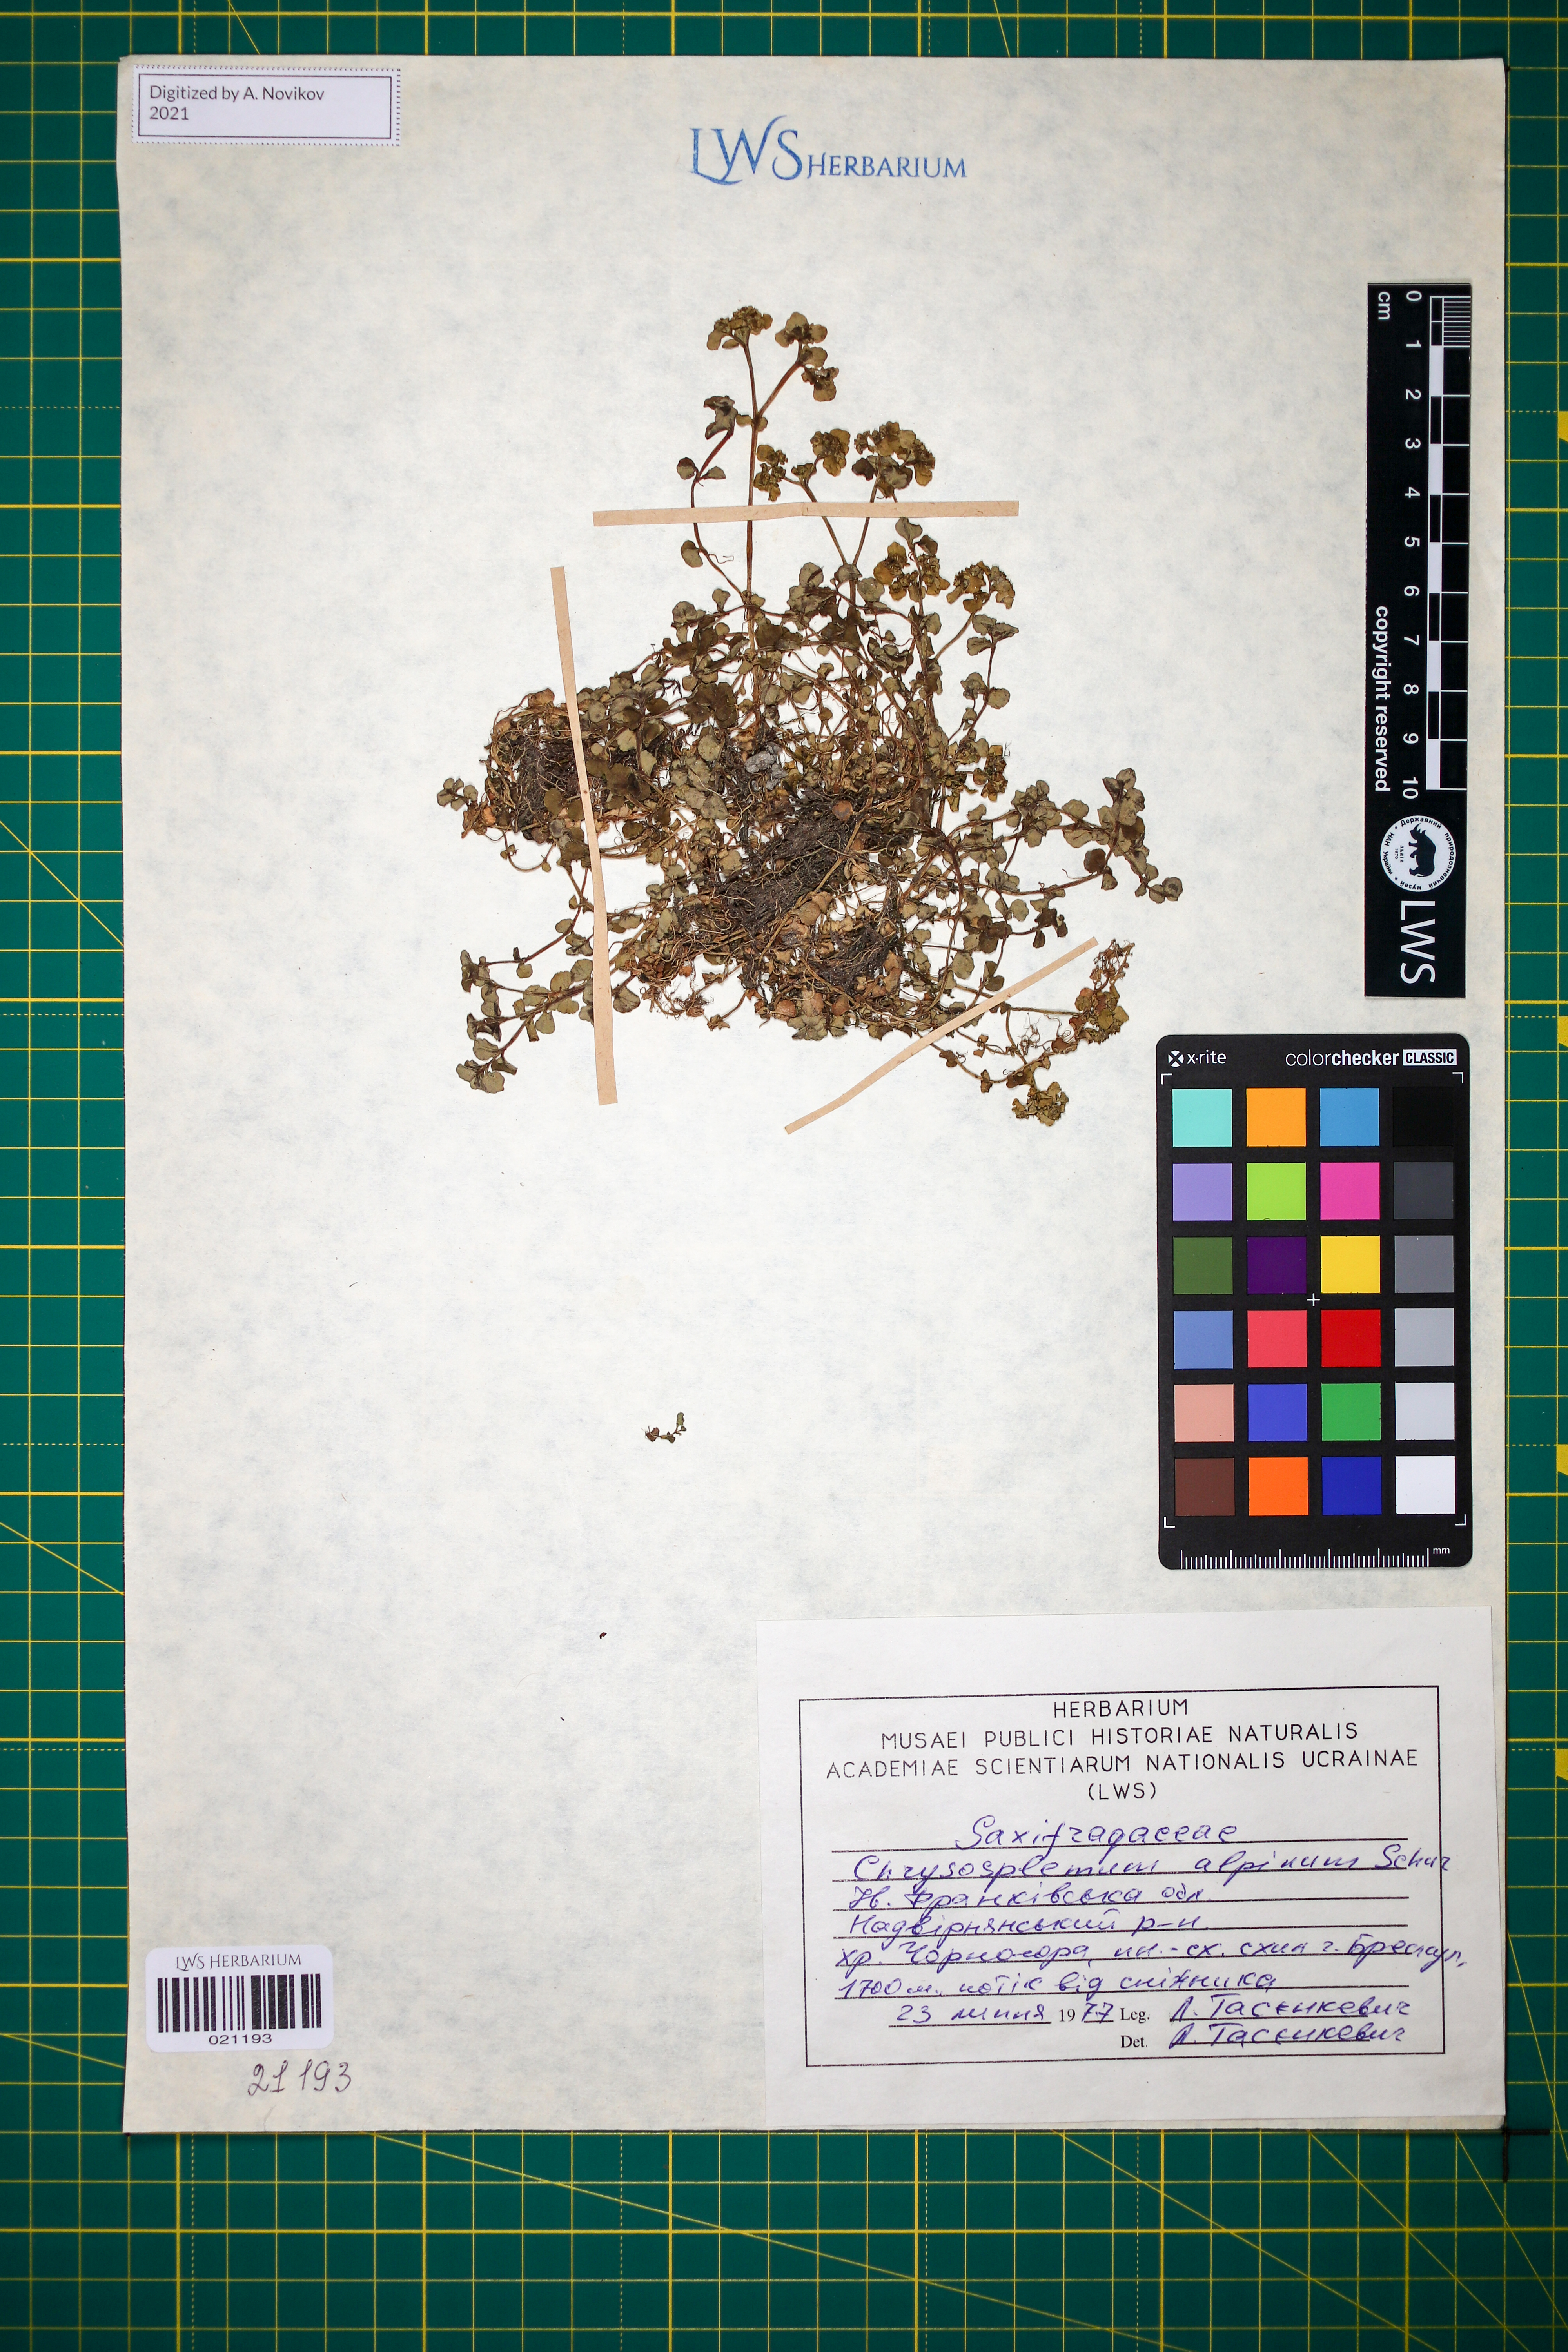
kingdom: Plantae
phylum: Tracheophyta
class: Magnoliopsida
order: Saxifragales
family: Saxifragaceae
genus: Chrysosplenium
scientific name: Chrysosplenium alpinum
